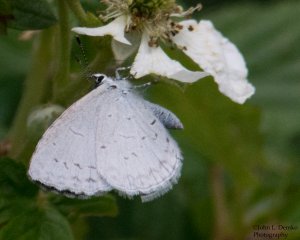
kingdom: Animalia
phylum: Arthropoda
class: Insecta
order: Lepidoptera
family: Lycaenidae
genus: Celastrina
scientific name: Celastrina ladon
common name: Spring Azure
